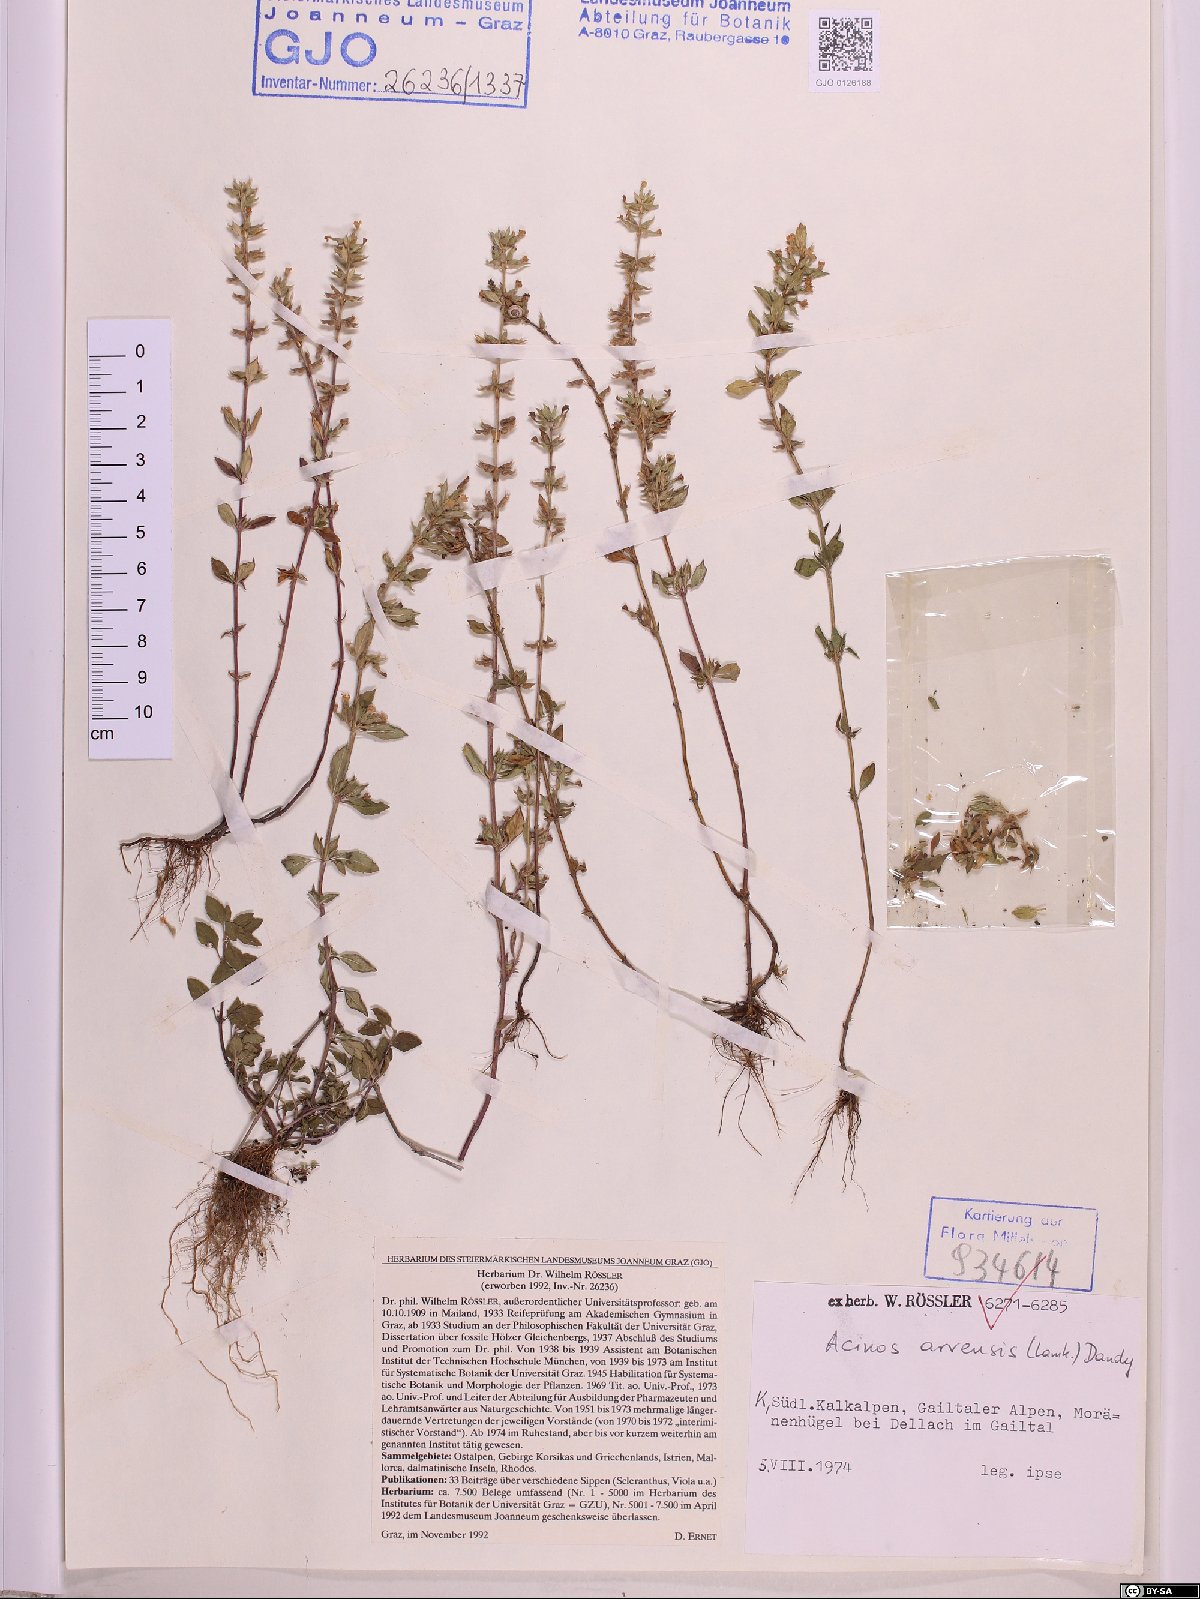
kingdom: Plantae
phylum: Tracheophyta
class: Magnoliopsida
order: Lamiales
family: Lamiaceae
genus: Clinopodium
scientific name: Clinopodium acinos
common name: Basil thyme
